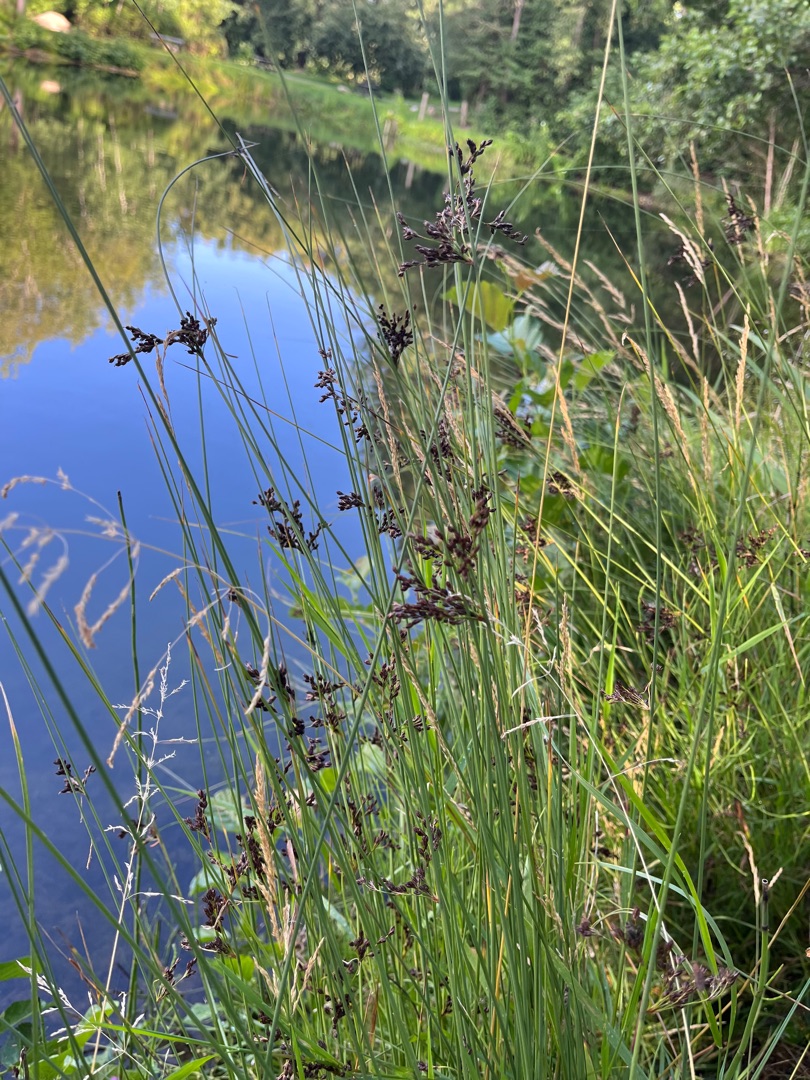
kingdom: Plantae
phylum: Tracheophyta
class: Liliopsida
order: Poales
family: Juncaceae
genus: Juncus
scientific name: Juncus inflexus
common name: Blågrå siv
